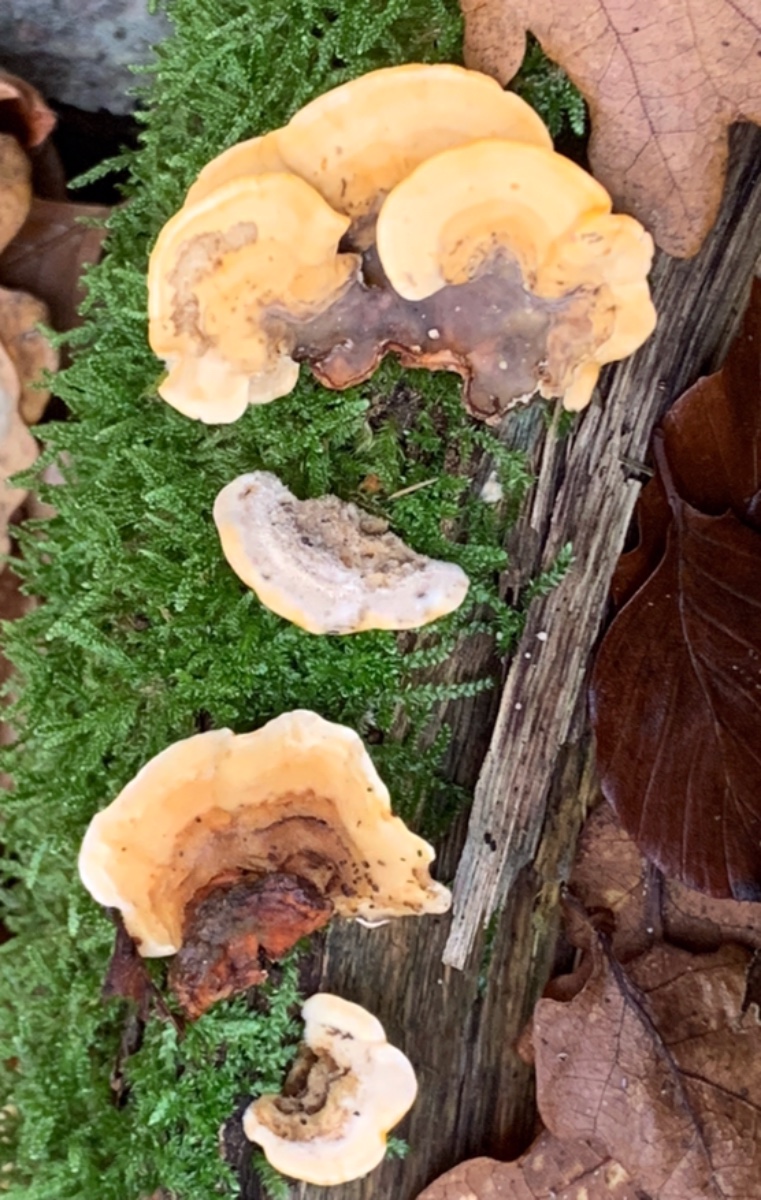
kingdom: Fungi
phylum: Basidiomycota
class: Agaricomycetes
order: Russulales
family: Stereaceae
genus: Stereum
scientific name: Stereum hirsutum
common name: håret lædersvamp
